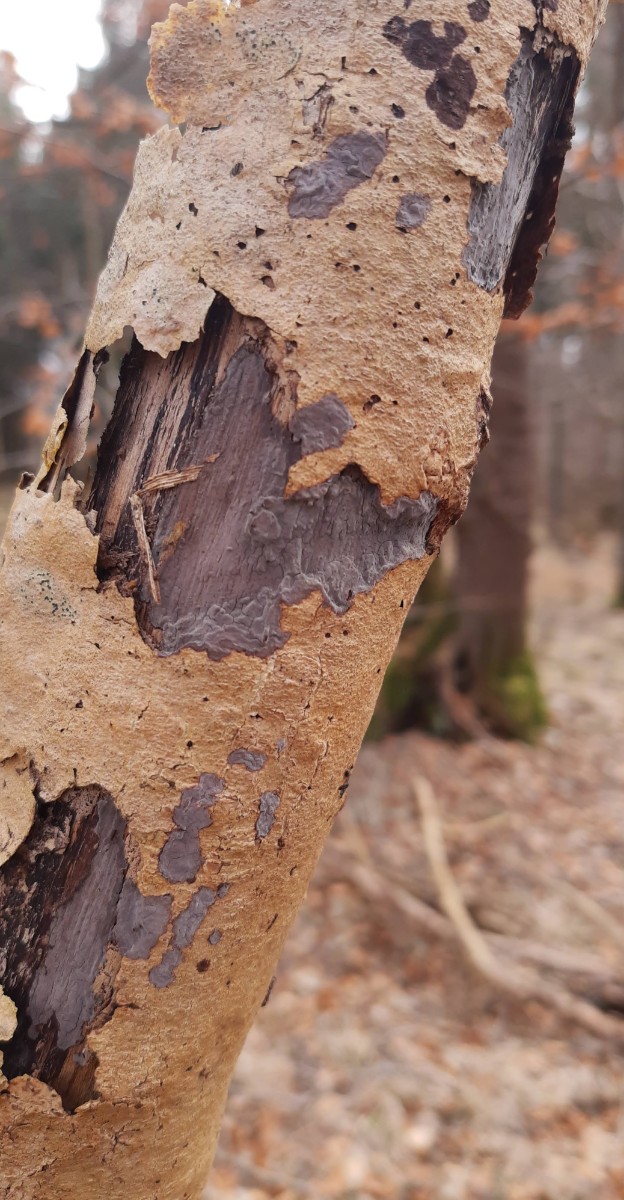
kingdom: Fungi
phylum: Basidiomycota
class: Agaricomycetes
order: Russulales
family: Peniophoraceae
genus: Peniophora
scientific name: Peniophora limitata
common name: mørkrandet voksskind
